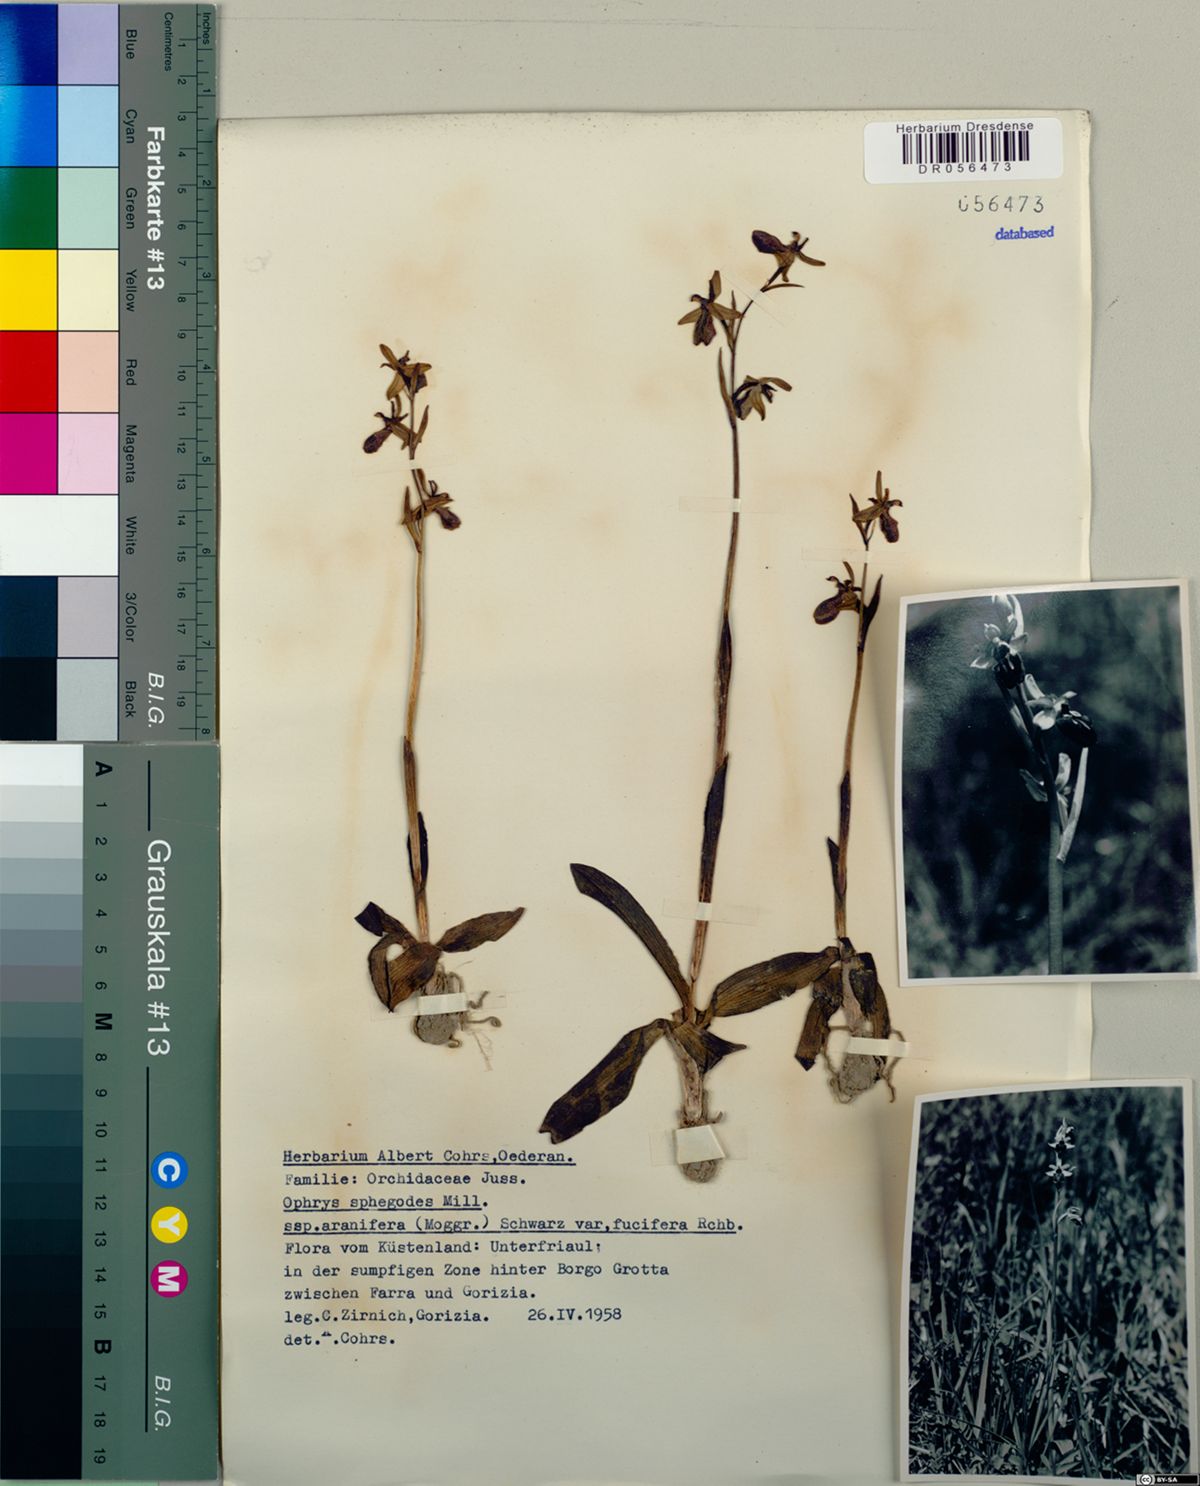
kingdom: Plantae
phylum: Tracheophyta
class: Liliopsida
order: Asparagales
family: Orchidaceae
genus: Ophrys
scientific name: Ophrys sphegodes
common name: Early spider-orchid
